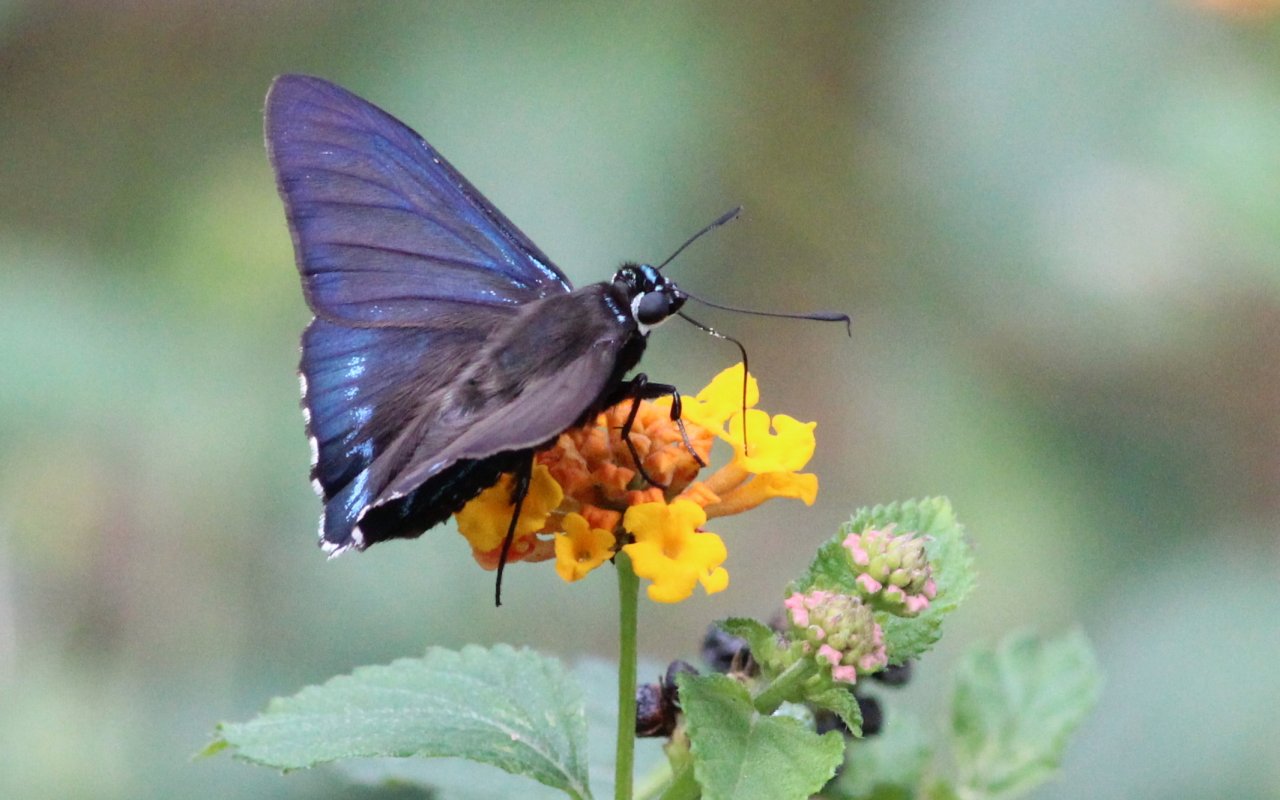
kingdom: Animalia
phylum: Arthropoda
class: Insecta
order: Lepidoptera
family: Hesperiidae
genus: Phocides
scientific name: Phocides pigmalion
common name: Mangrove Skipper
